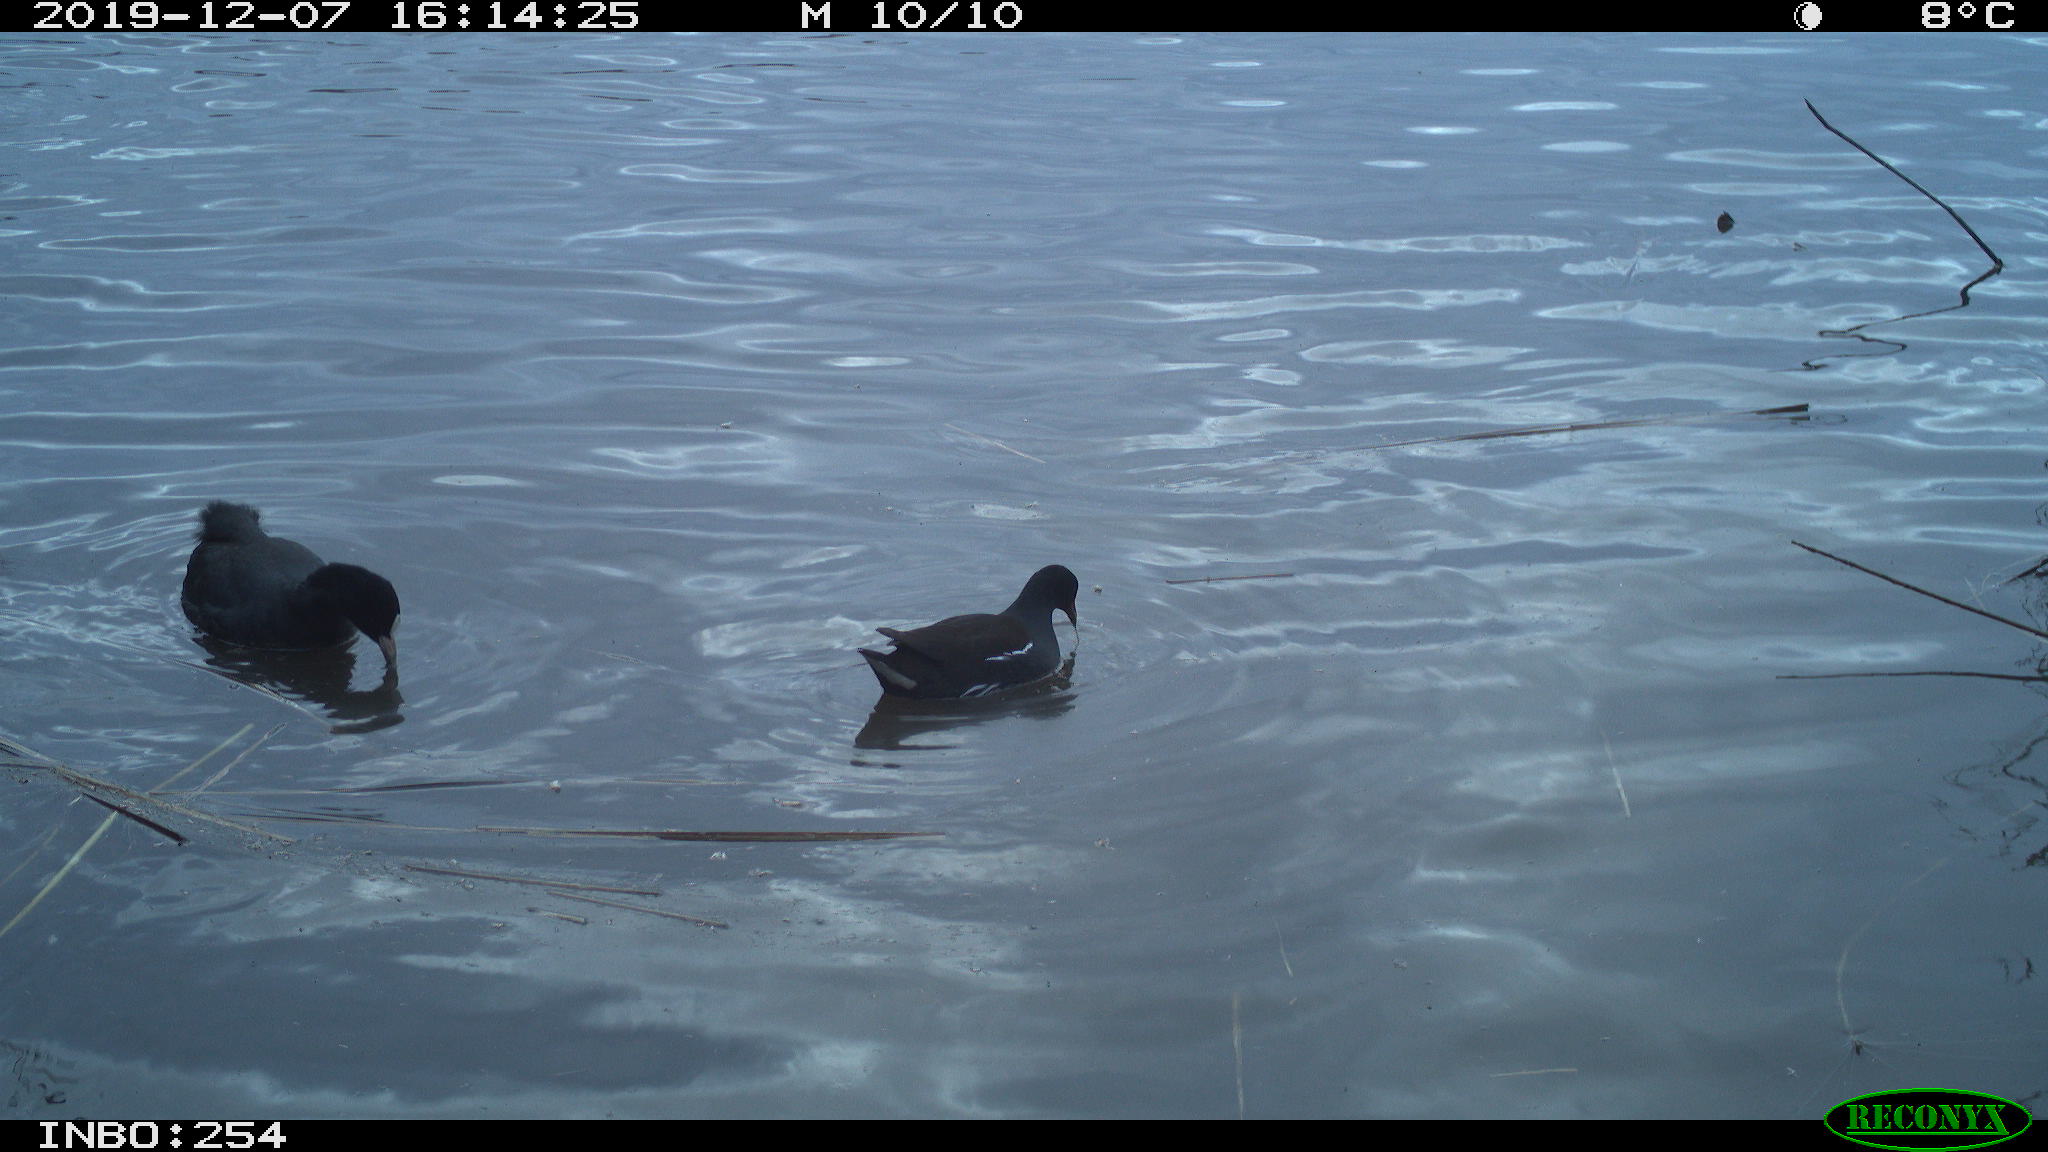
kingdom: Animalia
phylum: Chordata
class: Aves
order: Gruiformes
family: Rallidae
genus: Gallinula
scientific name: Gallinula chloropus
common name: Common moorhen
